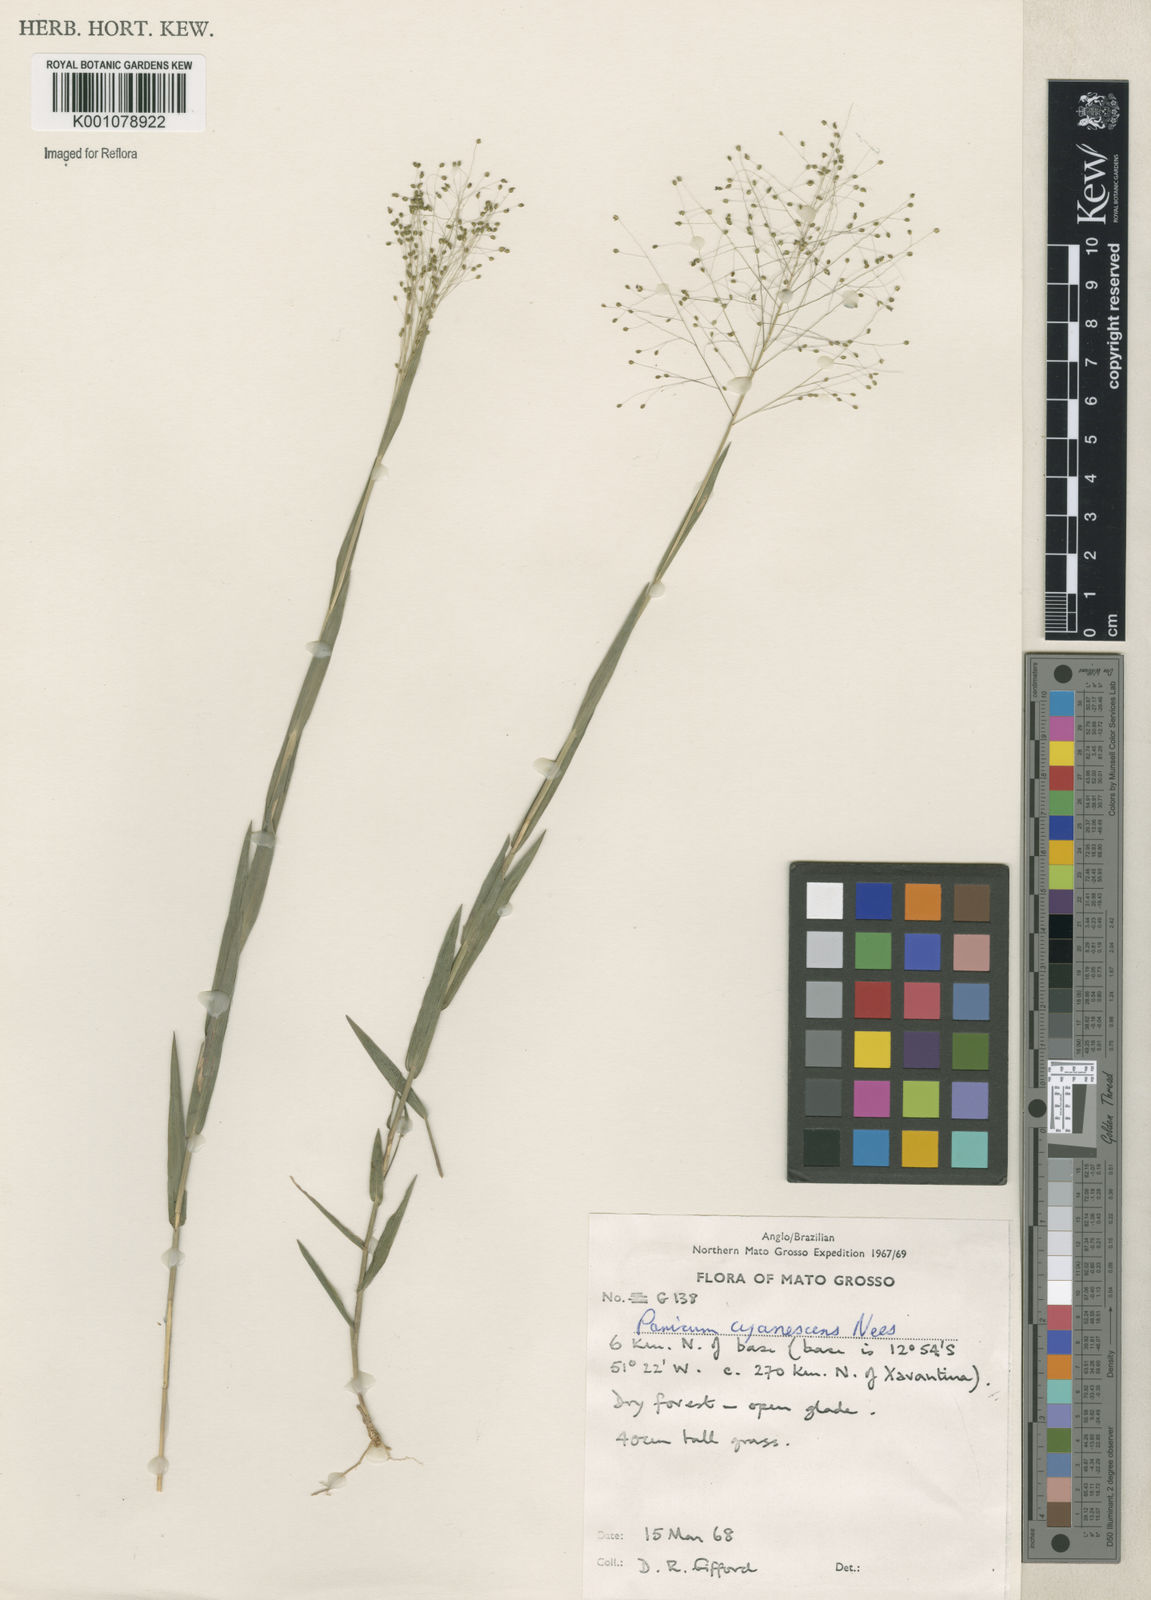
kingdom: Plantae
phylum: Tracheophyta
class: Liliopsida
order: Poales
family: Poaceae
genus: Trichanthecium
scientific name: Trichanthecium cyanescens
